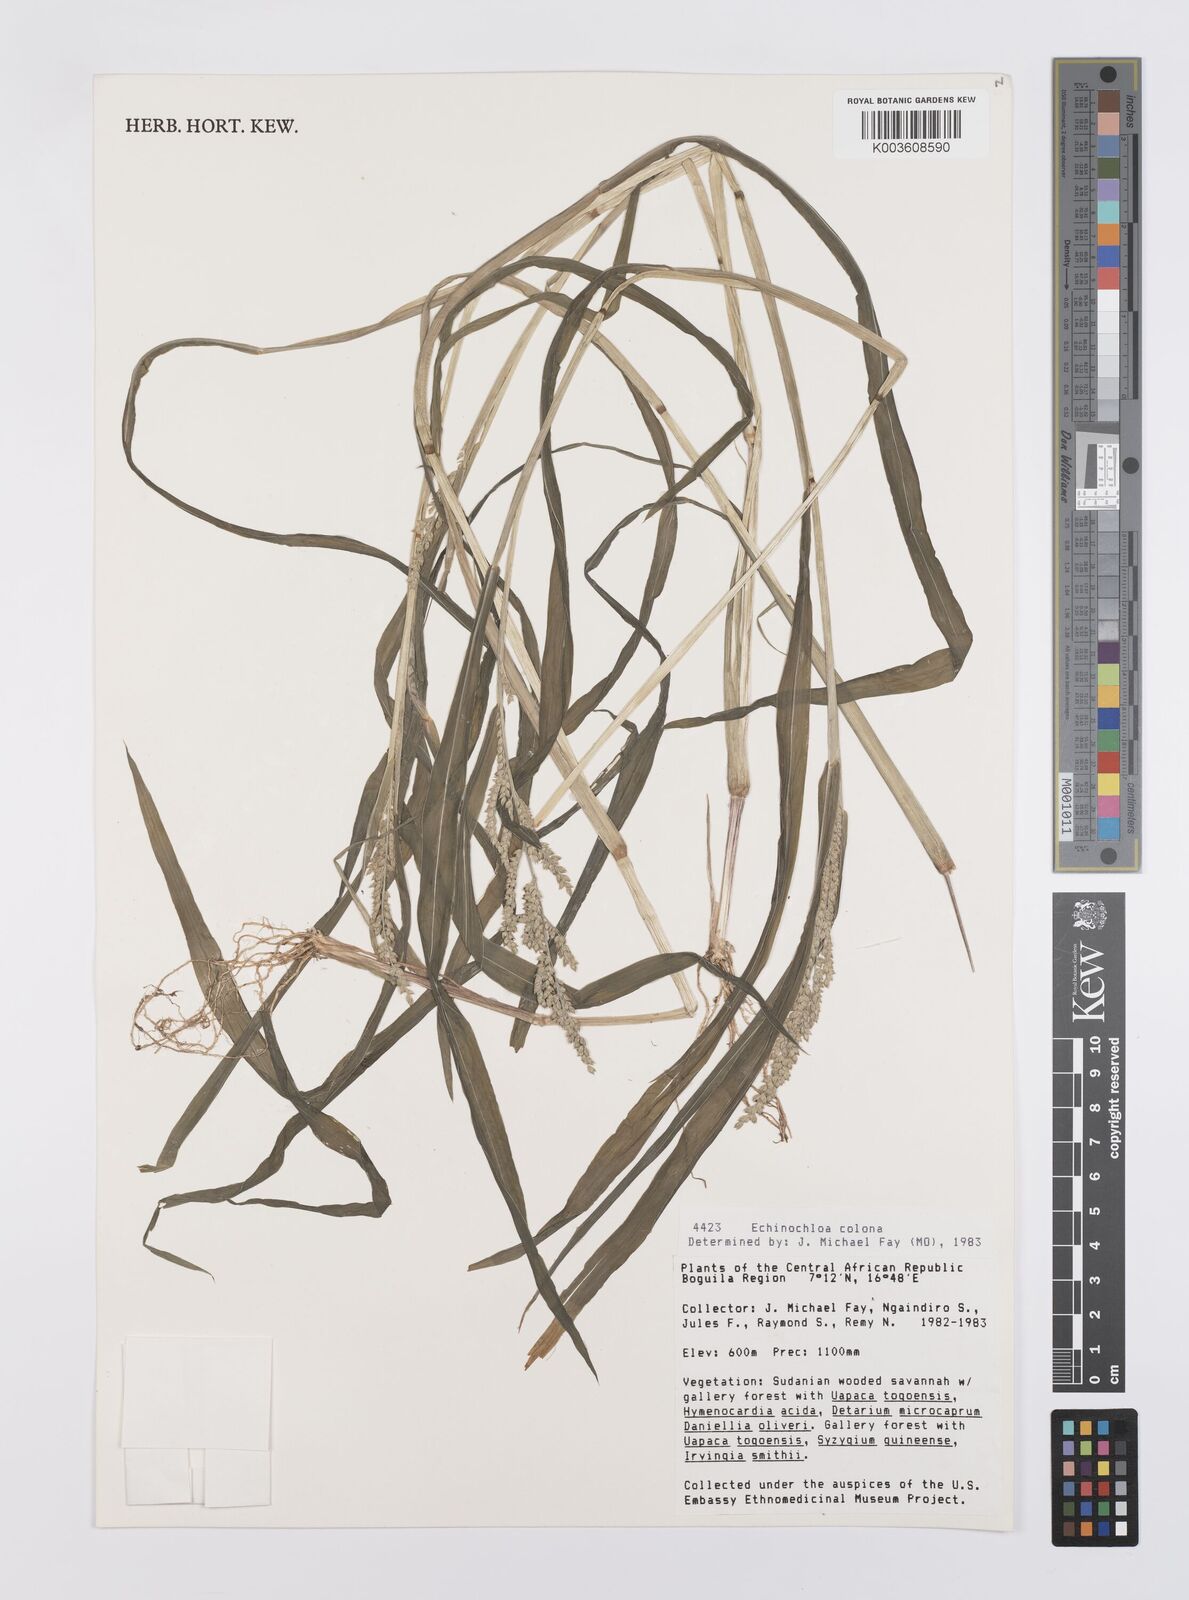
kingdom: Plantae
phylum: Tracheophyta
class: Liliopsida
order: Poales
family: Poaceae
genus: Echinochloa
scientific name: Echinochloa colonum
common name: Jungle rice
